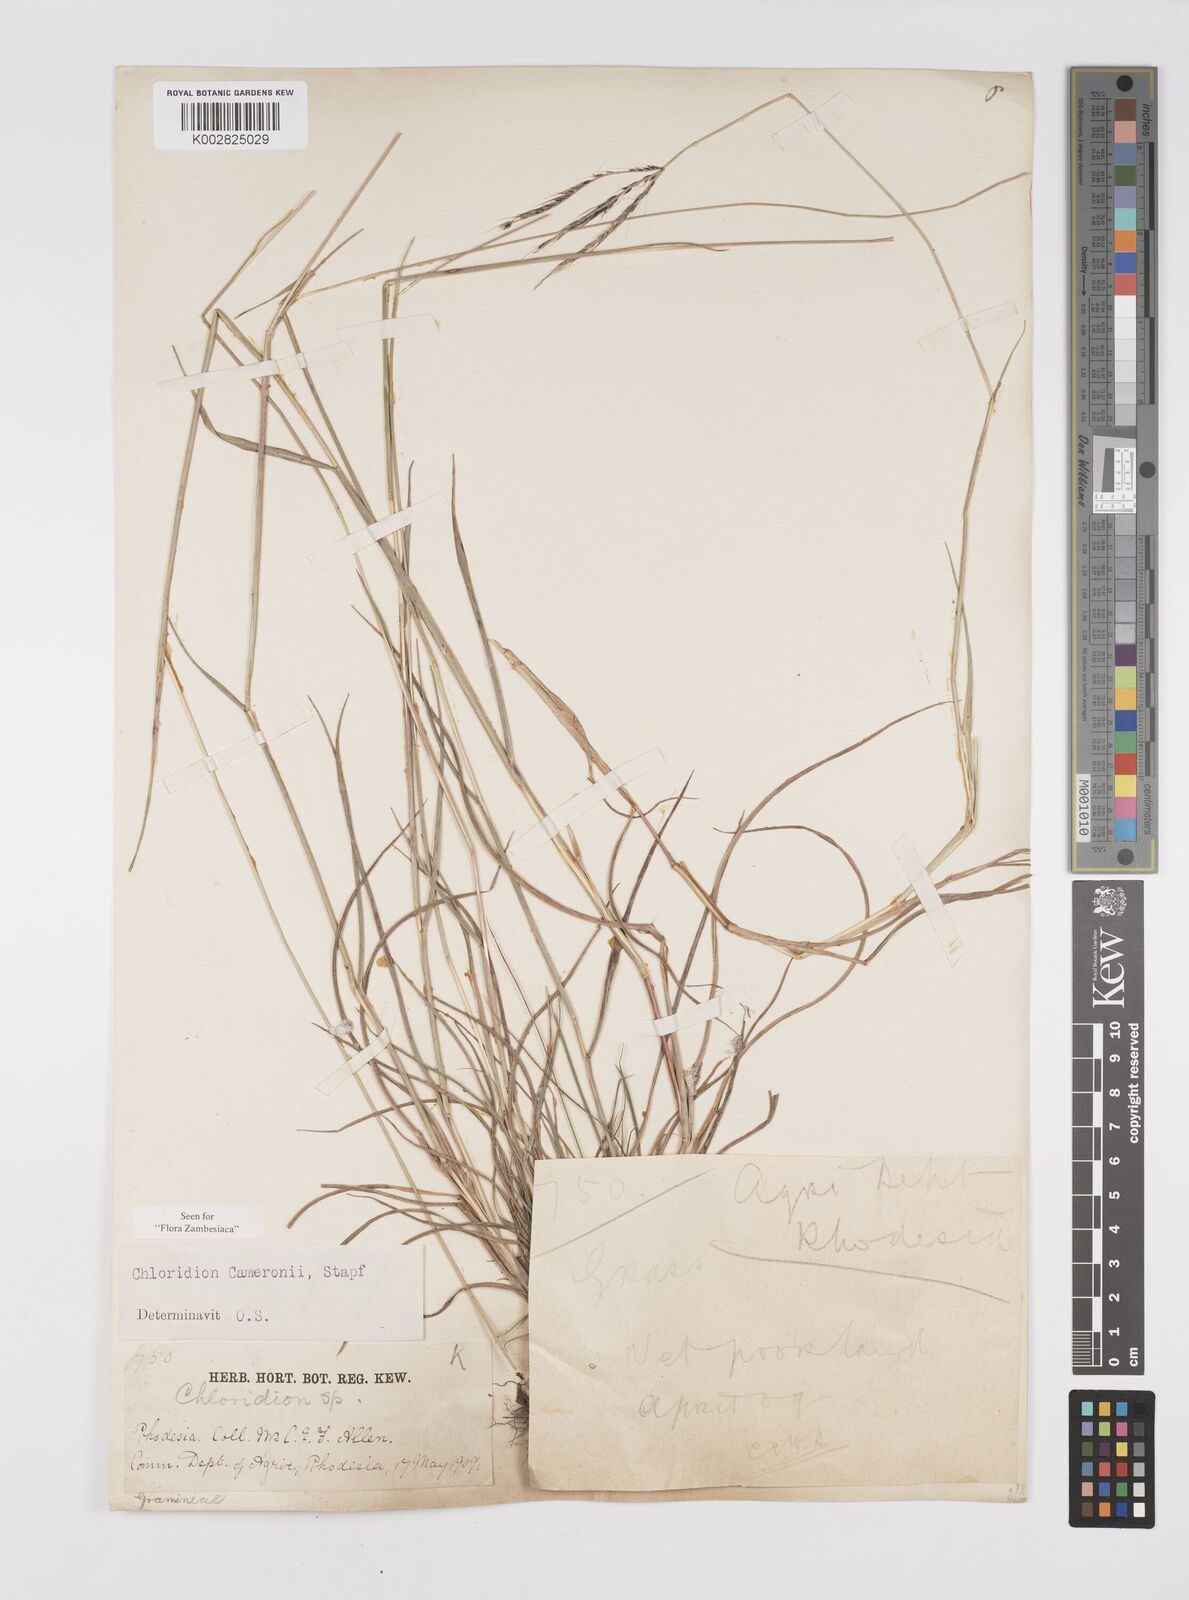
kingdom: Plantae
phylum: Tracheophyta
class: Liliopsida
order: Poales
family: Poaceae
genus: Stereochlaena
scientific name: Stereochlaena cameronii
